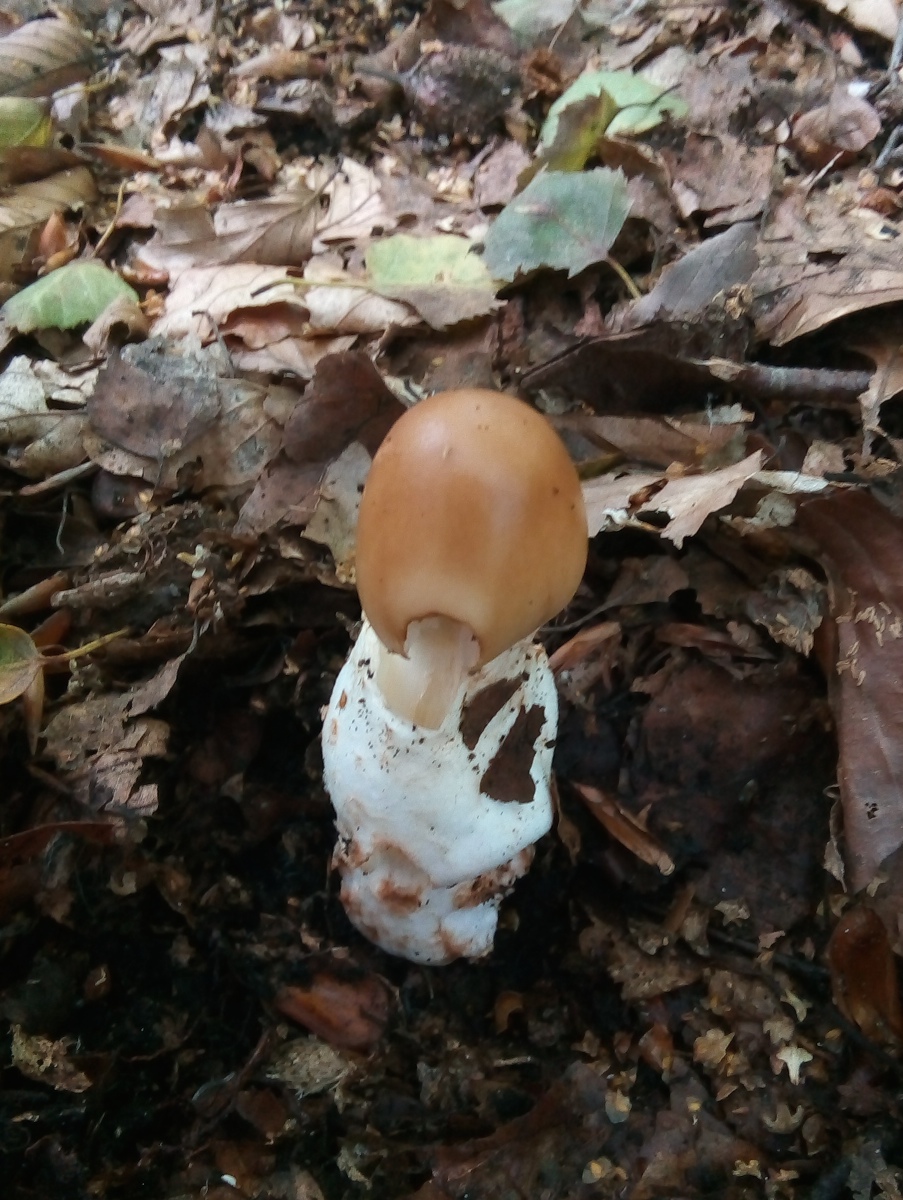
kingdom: Fungi
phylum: Basidiomycota
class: Agaricomycetes
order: Agaricales
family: Amanitaceae
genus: Amanita
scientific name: Amanita fulva
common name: brun kam-fluesvamp
